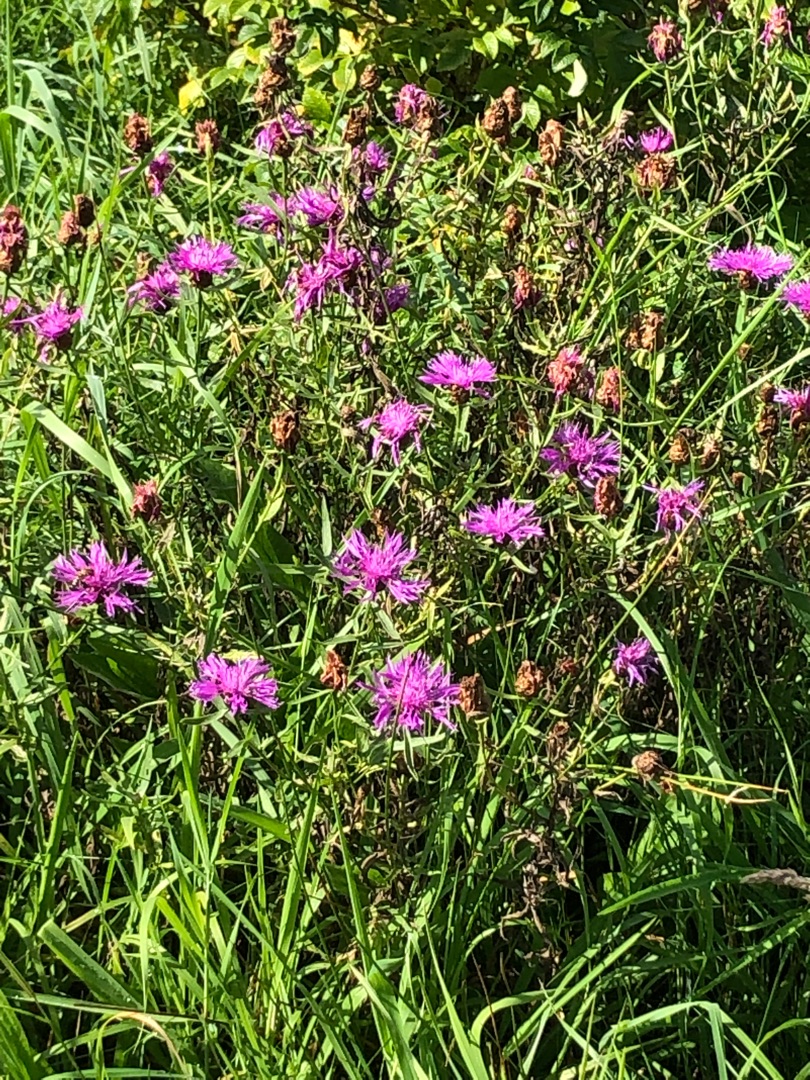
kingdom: Plantae
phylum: Tracheophyta
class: Magnoliopsida
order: Asterales
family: Asteraceae
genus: Centaurea
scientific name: Centaurea jacea
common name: Almindelig knopurt
